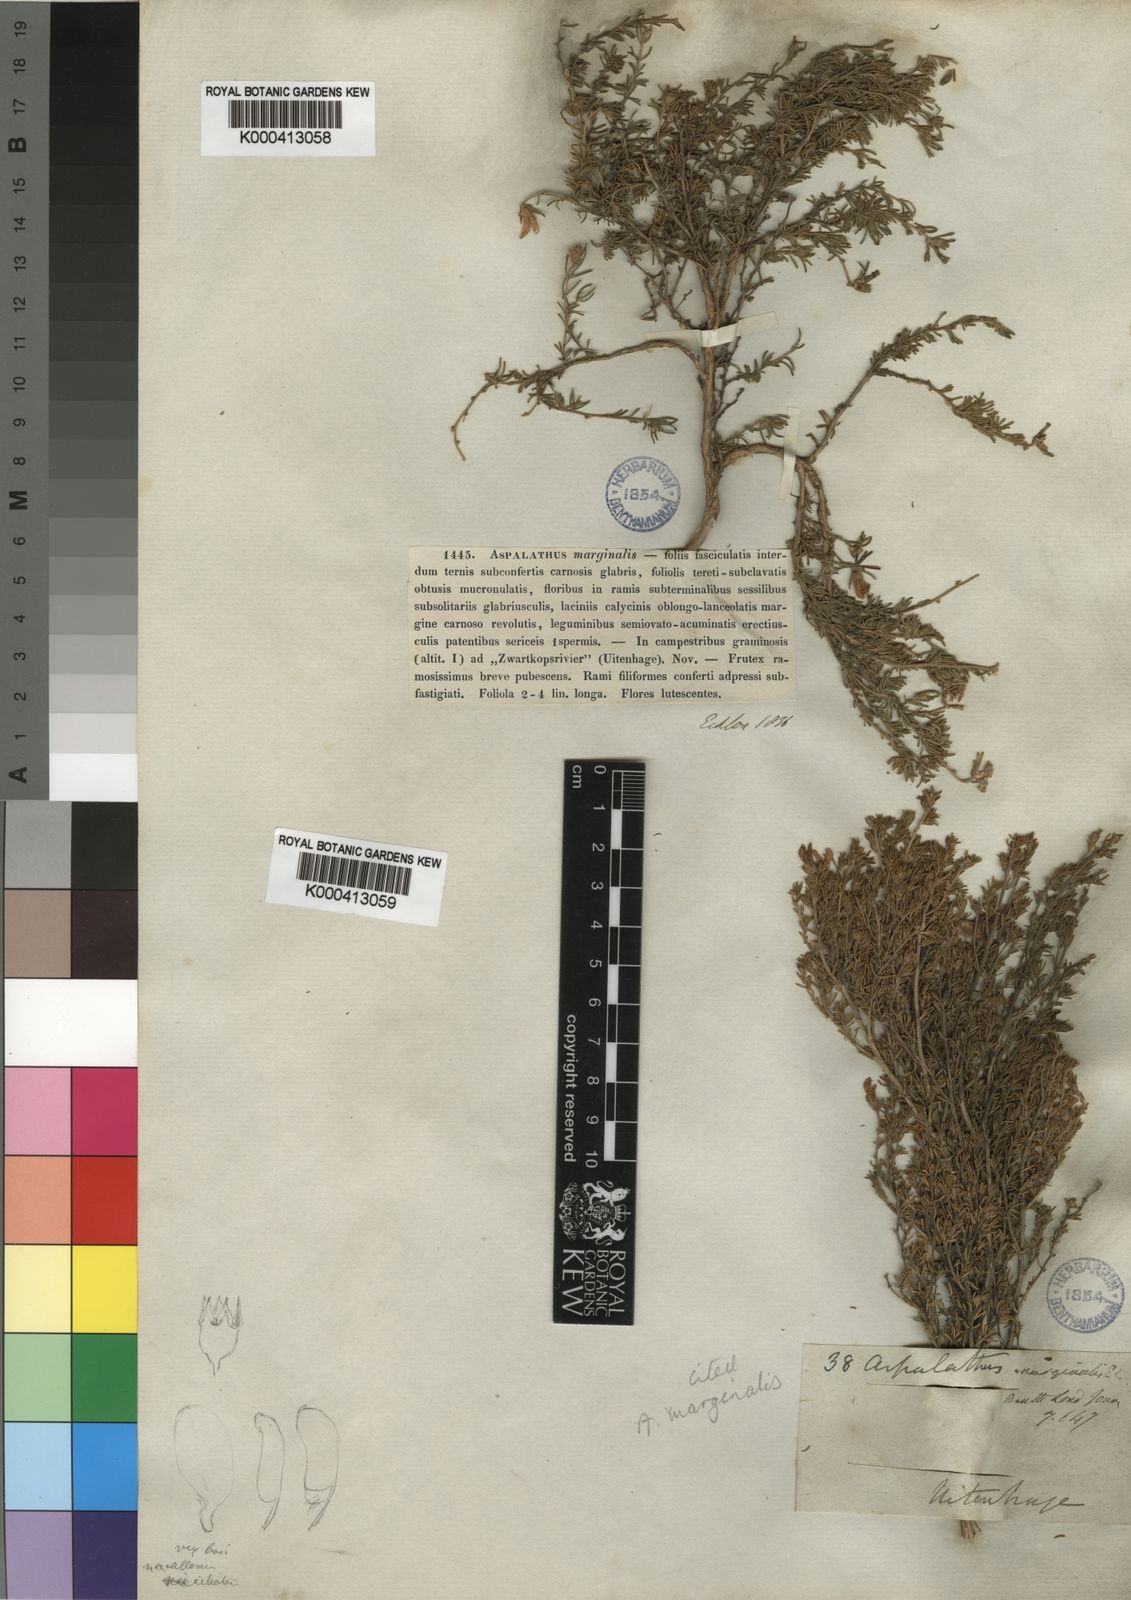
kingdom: Plantae
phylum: Tracheophyta
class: Magnoliopsida
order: Fabales
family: Fabaceae
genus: Aspalathus
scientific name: Aspalathus marginalis
